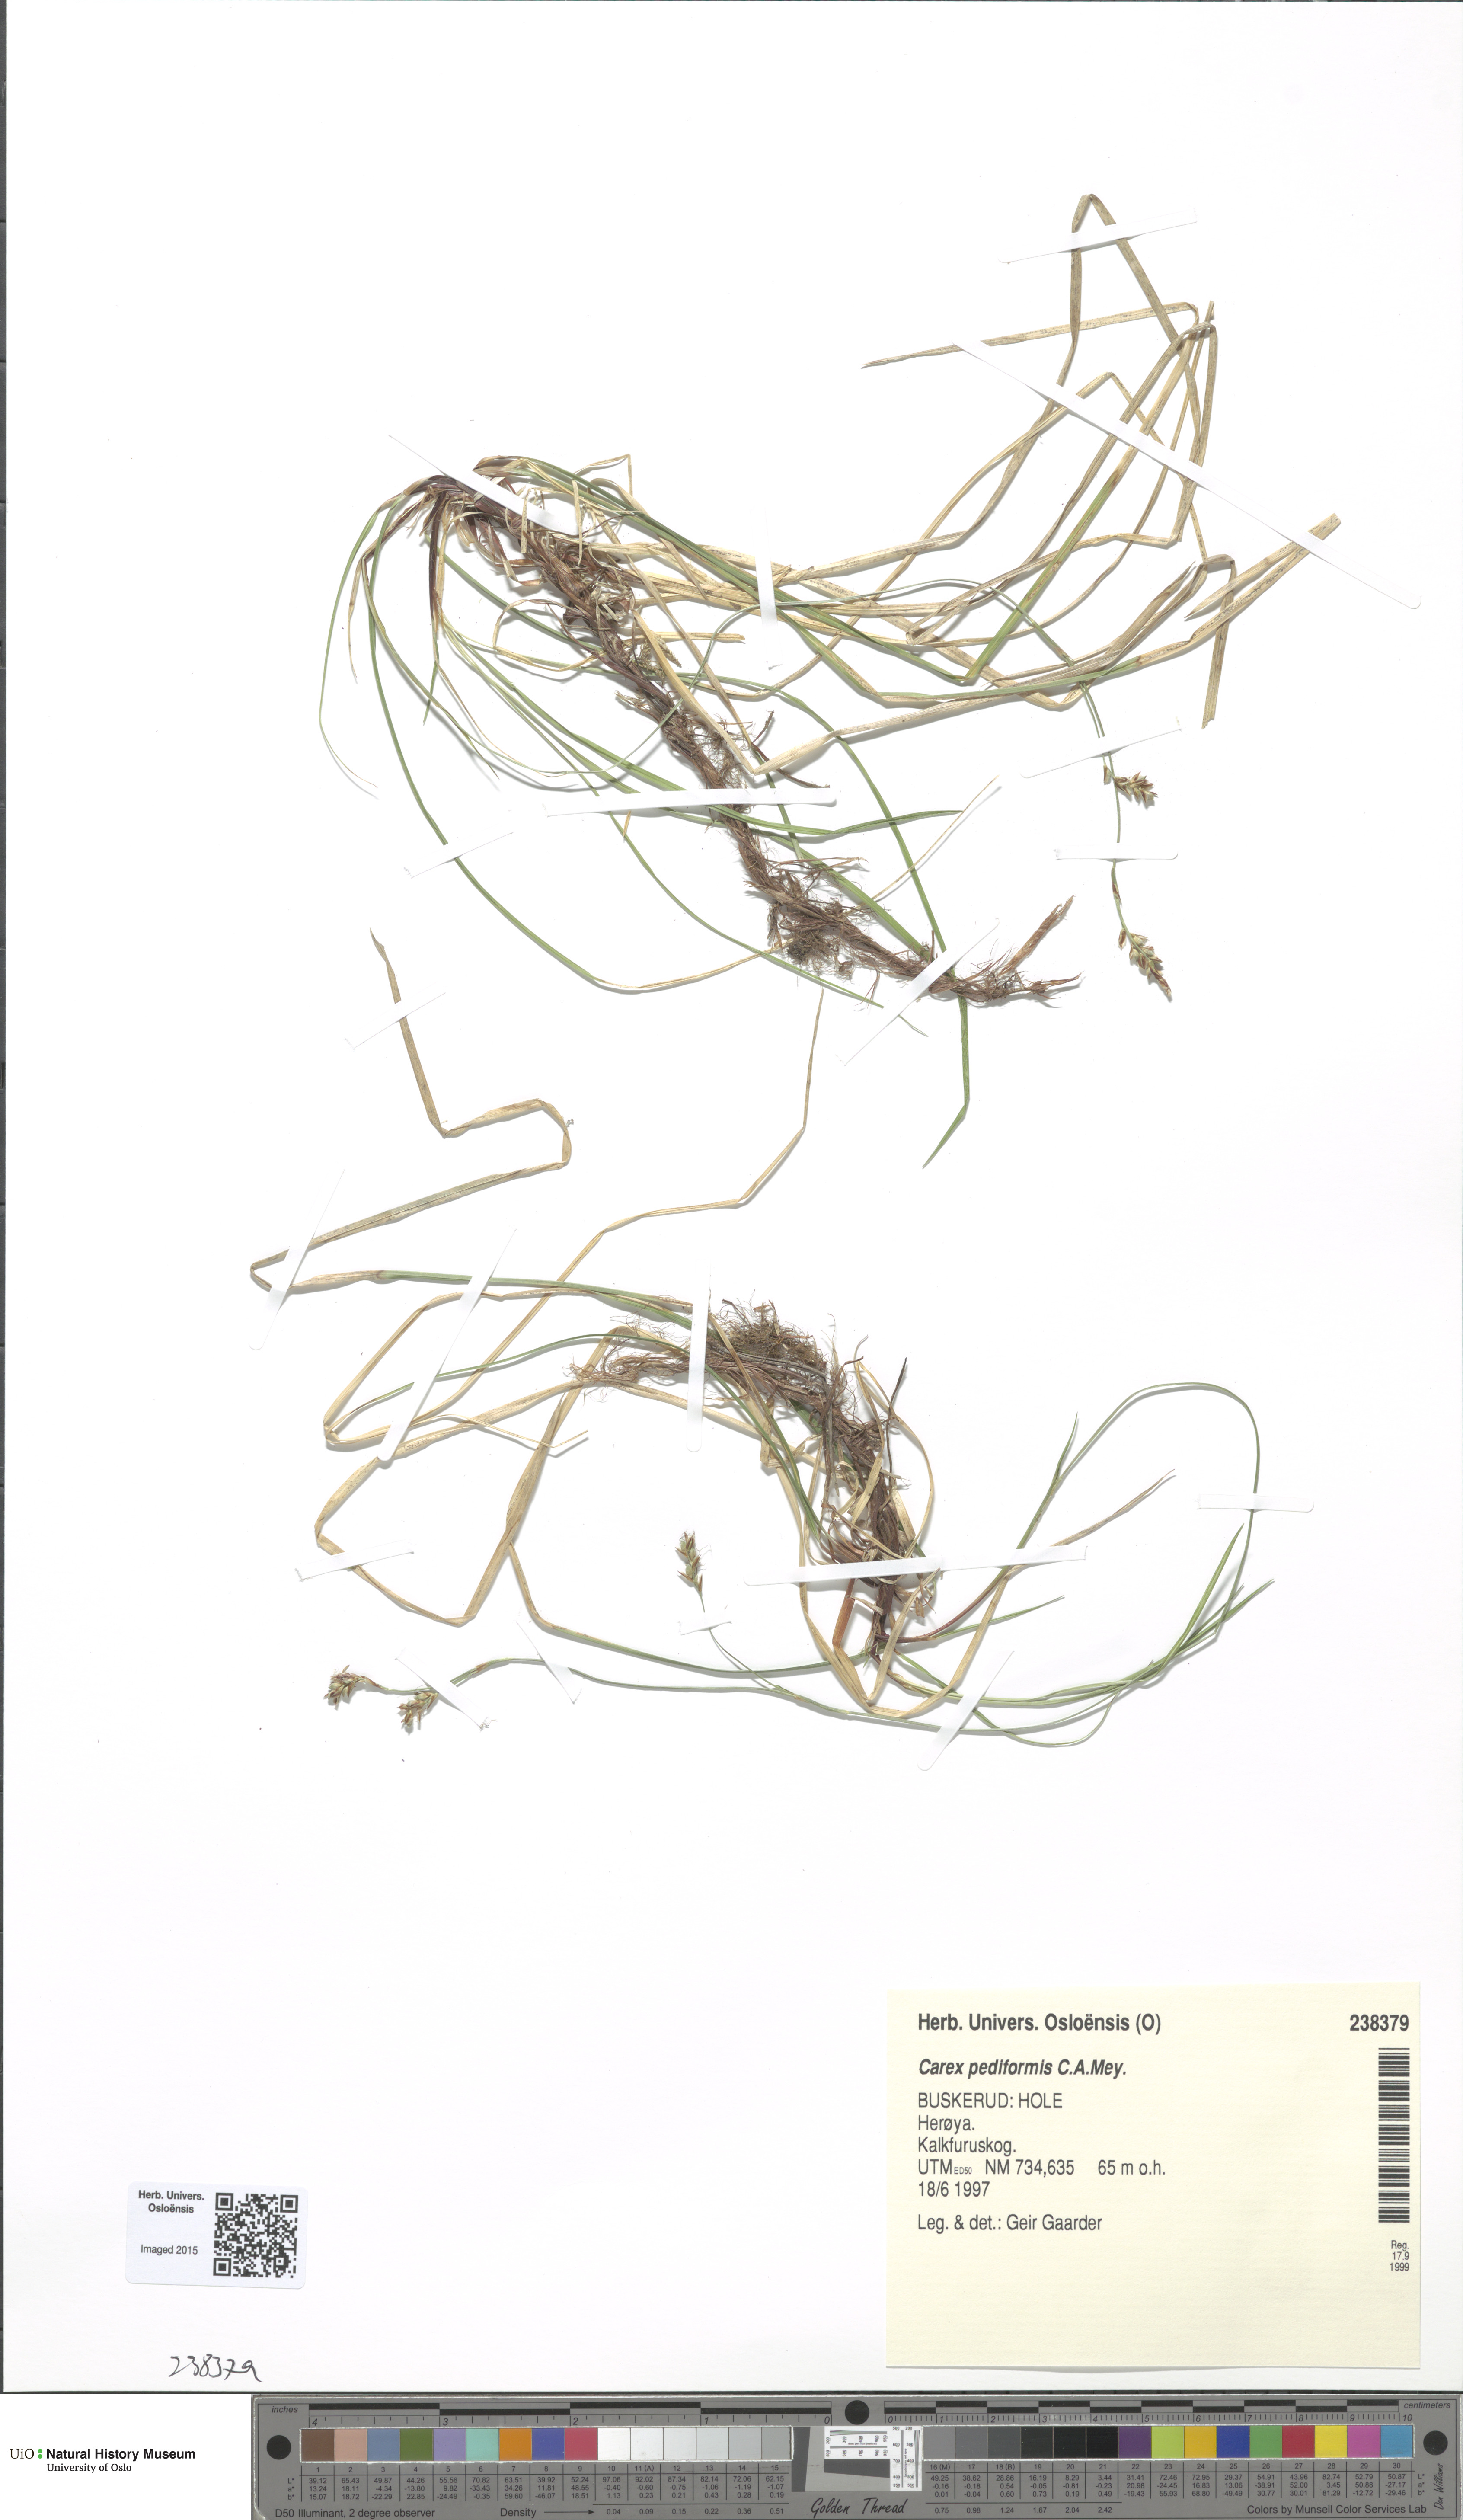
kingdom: Plantae
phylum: Tracheophyta
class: Liliopsida
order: Poales
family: Cyperaceae
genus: Carex
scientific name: Carex rhizina
